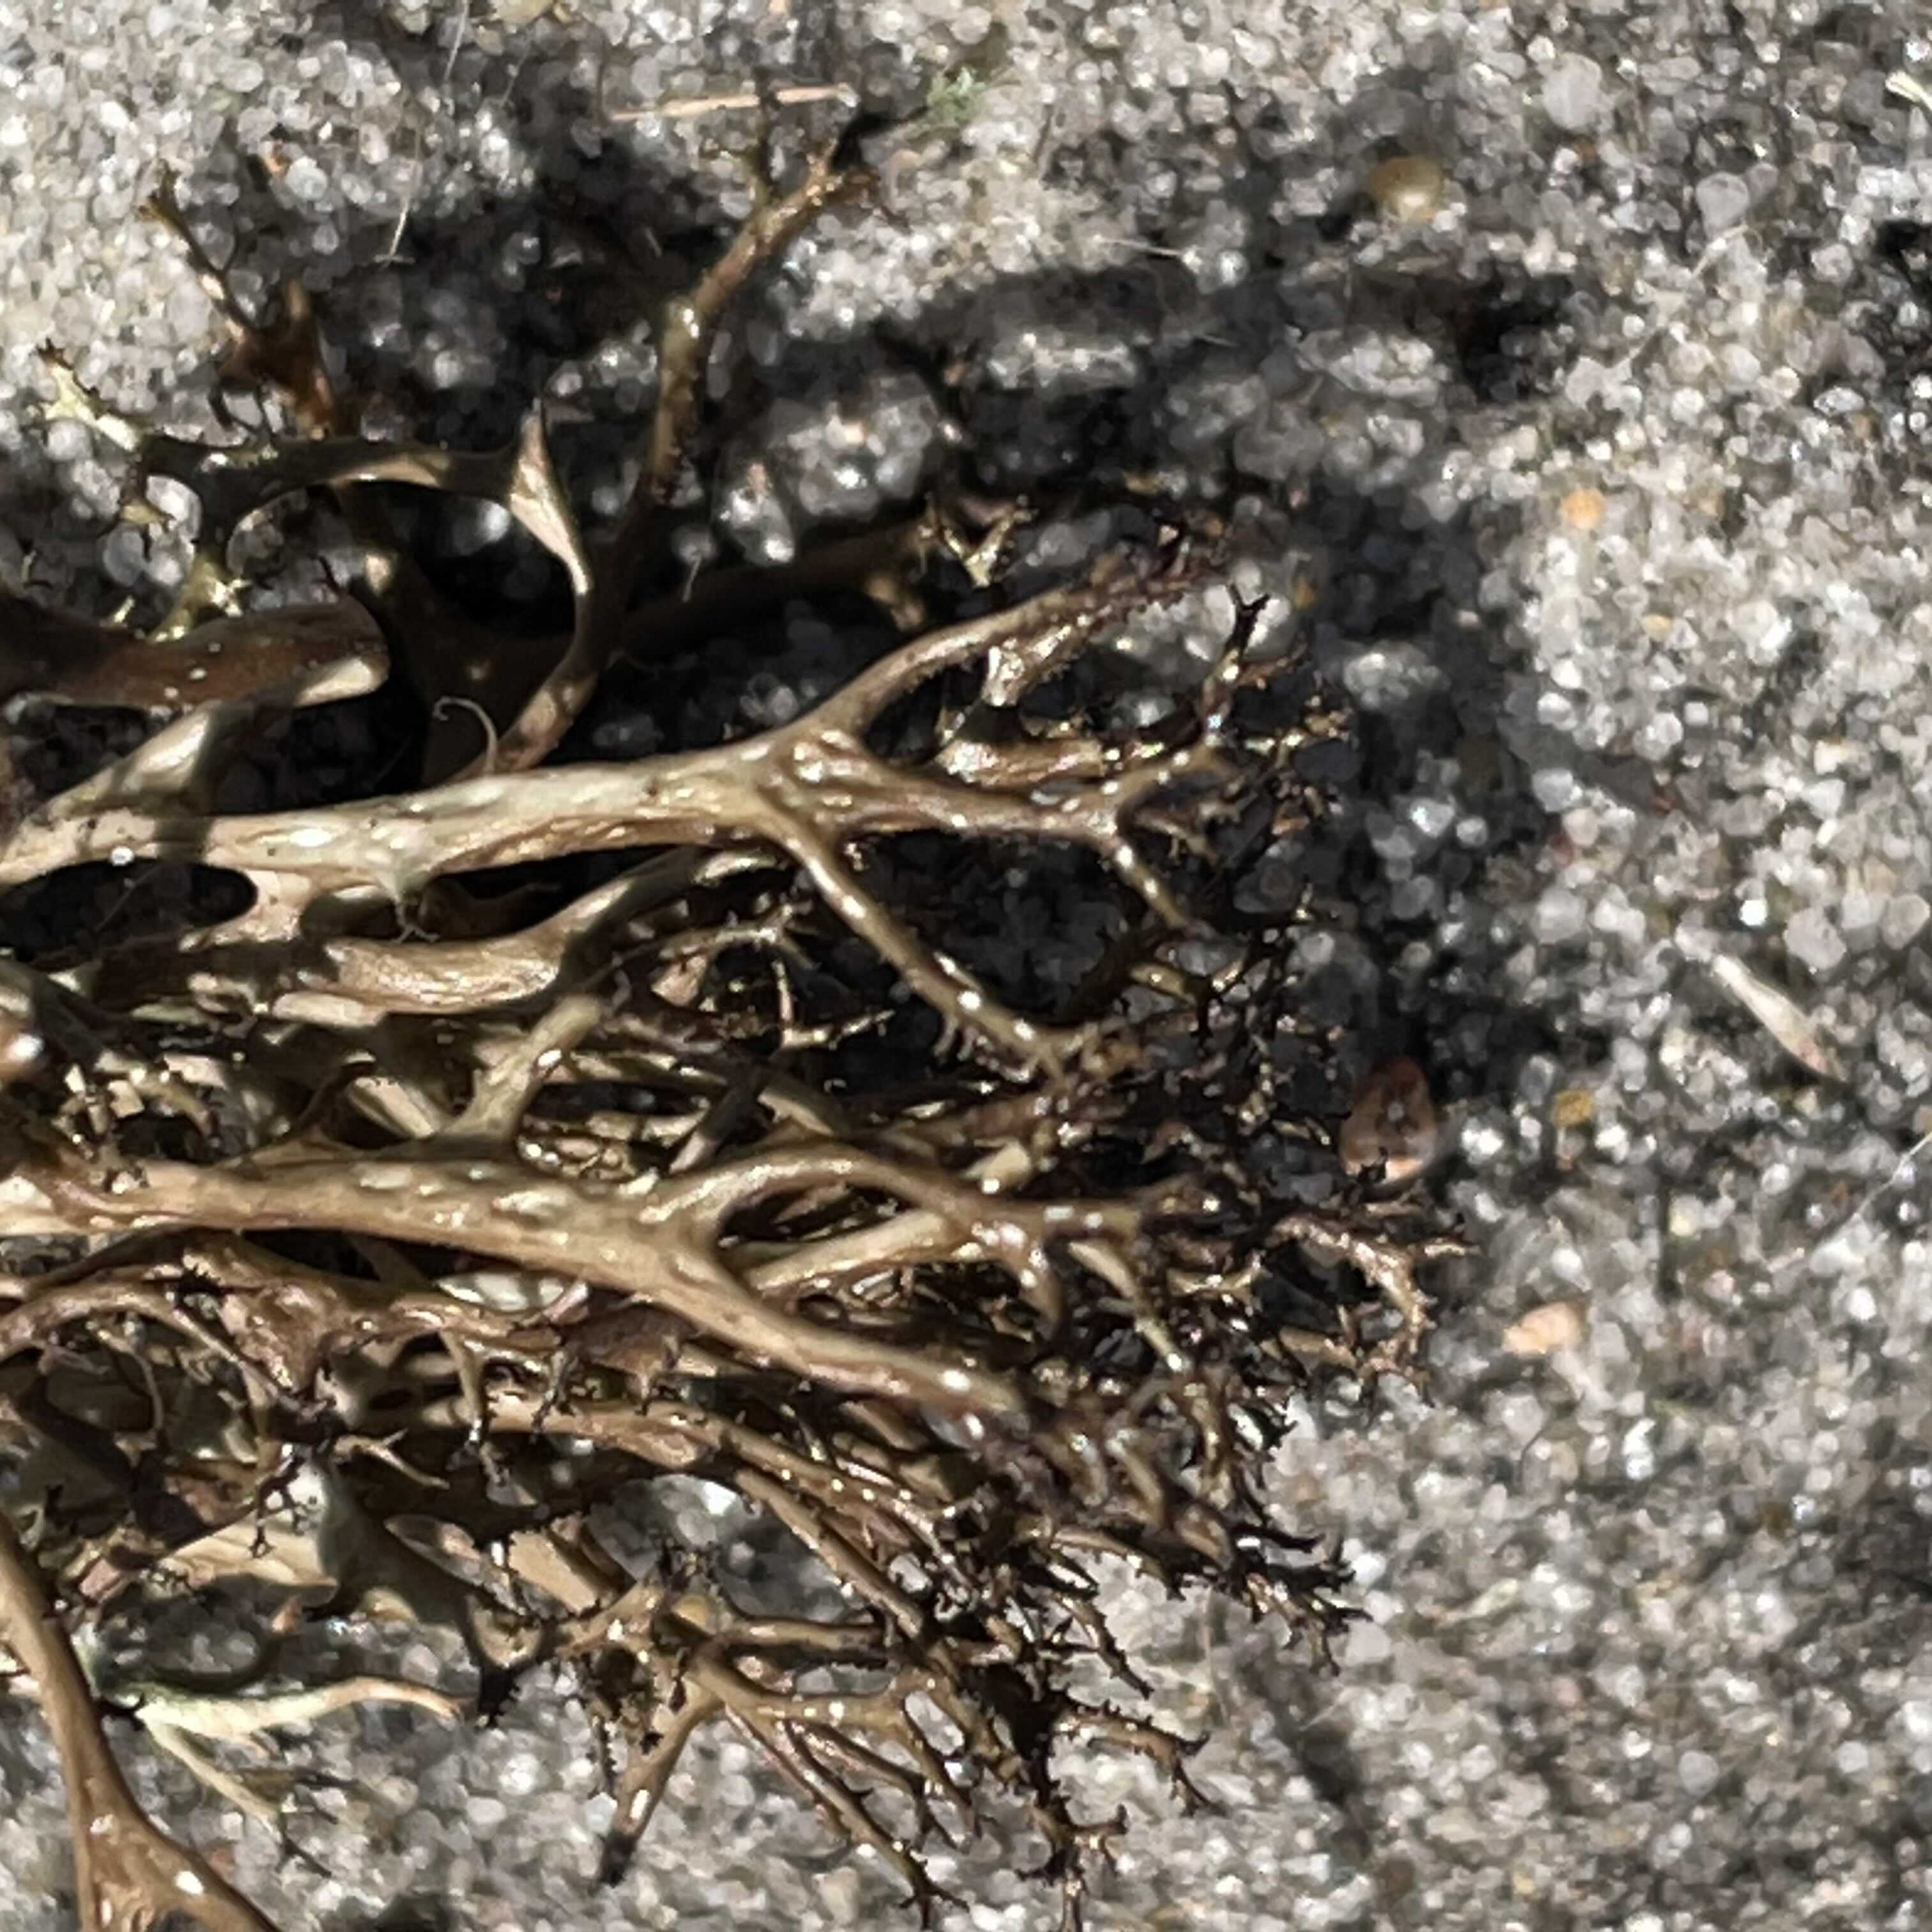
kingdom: Fungi
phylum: Ascomycota
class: Lecanoromycetes
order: Lecanorales
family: Parmeliaceae
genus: Cetraria
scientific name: Cetraria aculeata
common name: grubet tjørnelav
